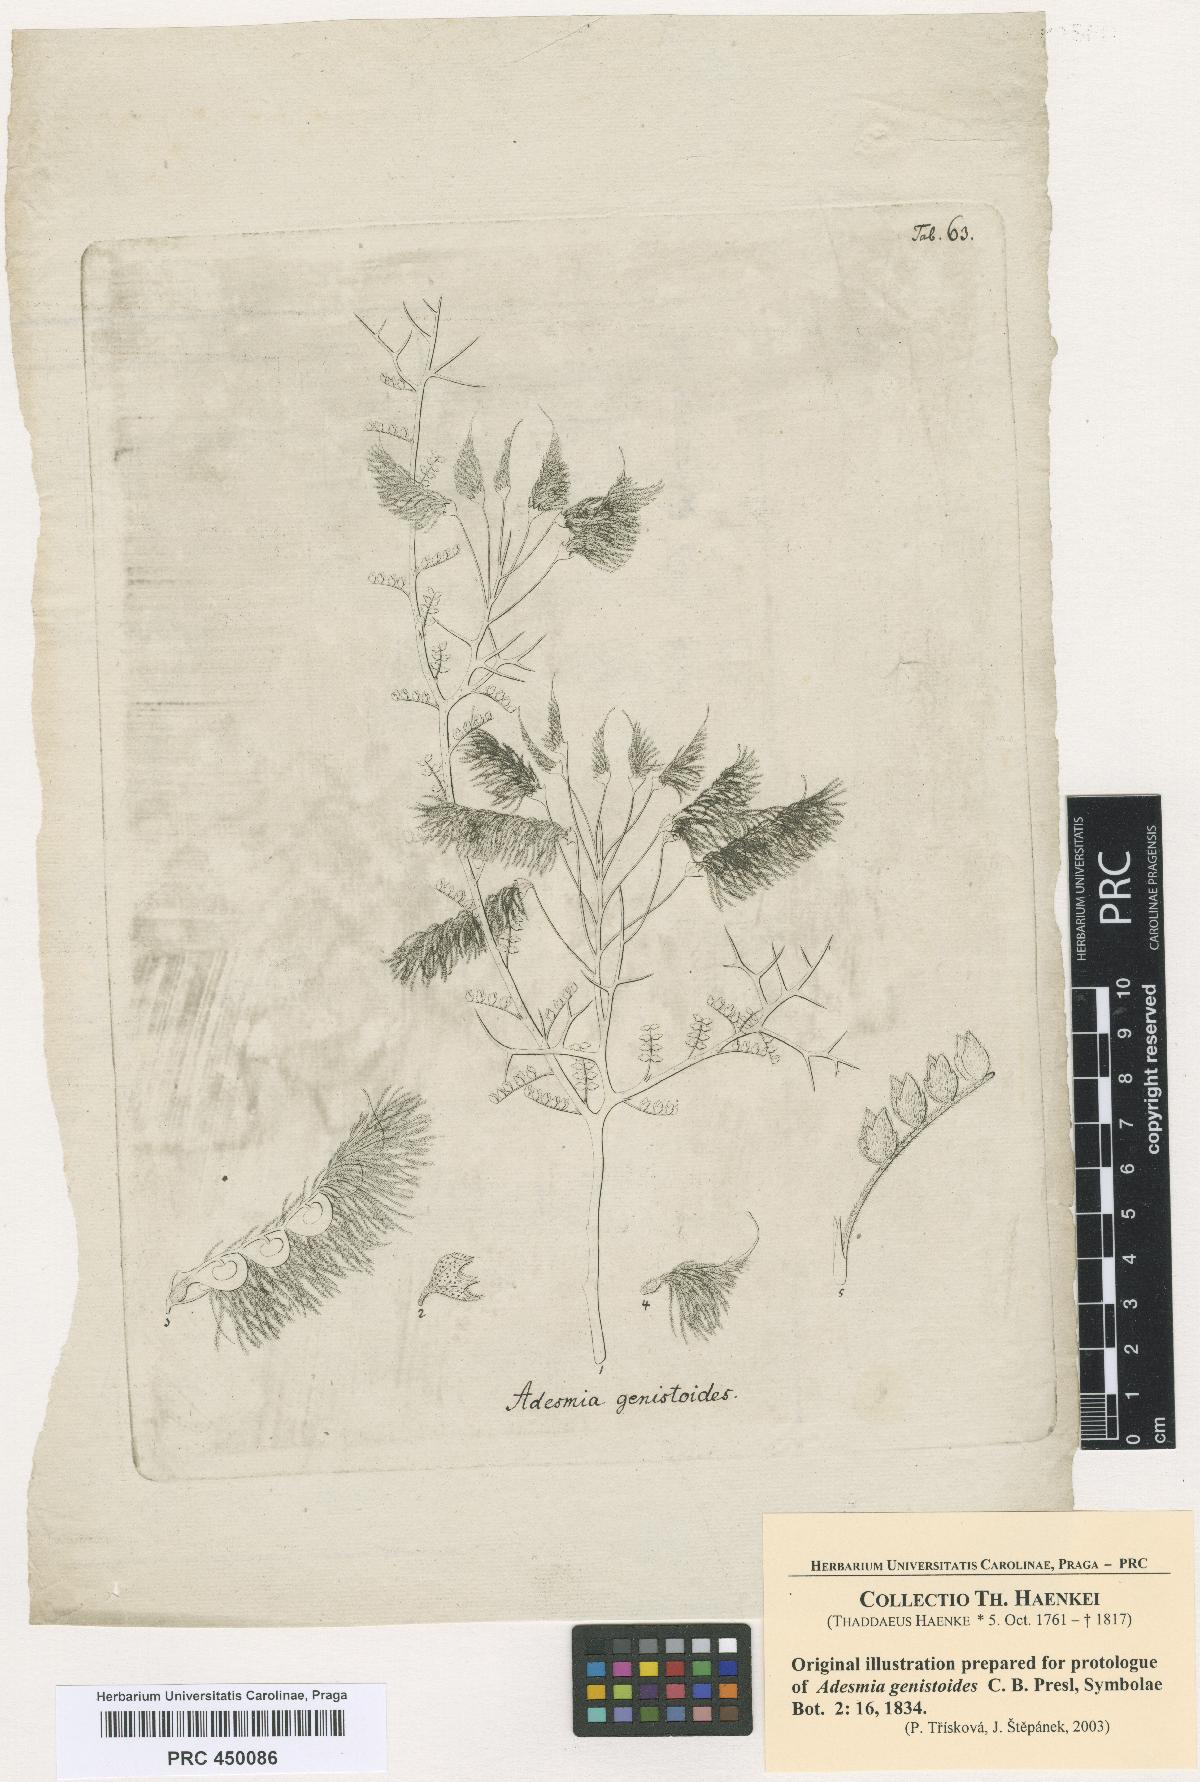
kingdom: Plantae
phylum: Tracheophyta
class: Magnoliopsida
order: Fabales
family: Fabaceae
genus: Adesmia
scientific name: Adesmia pedicellata
